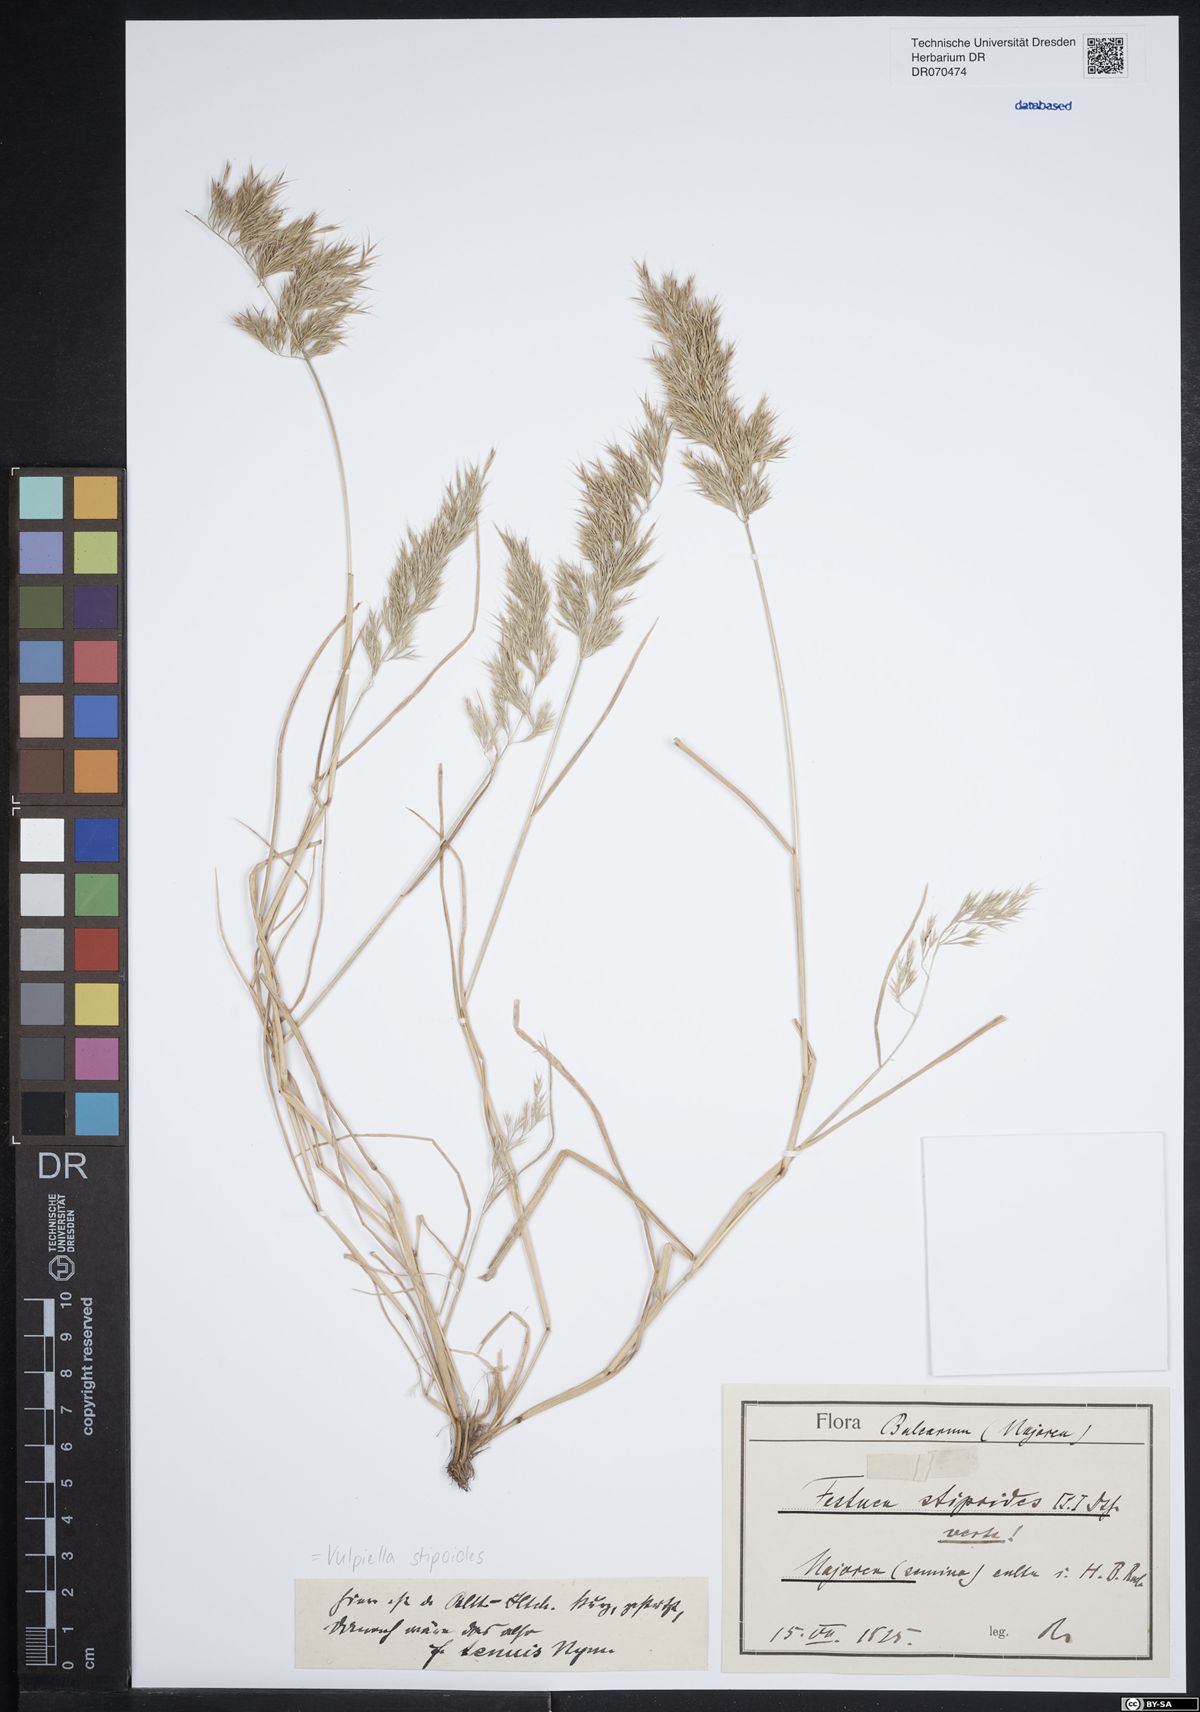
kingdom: Plantae
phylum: Tracheophyta
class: Liliopsida
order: Poales
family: Poaceae
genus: Vulpiella
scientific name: Vulpiella stipoides
